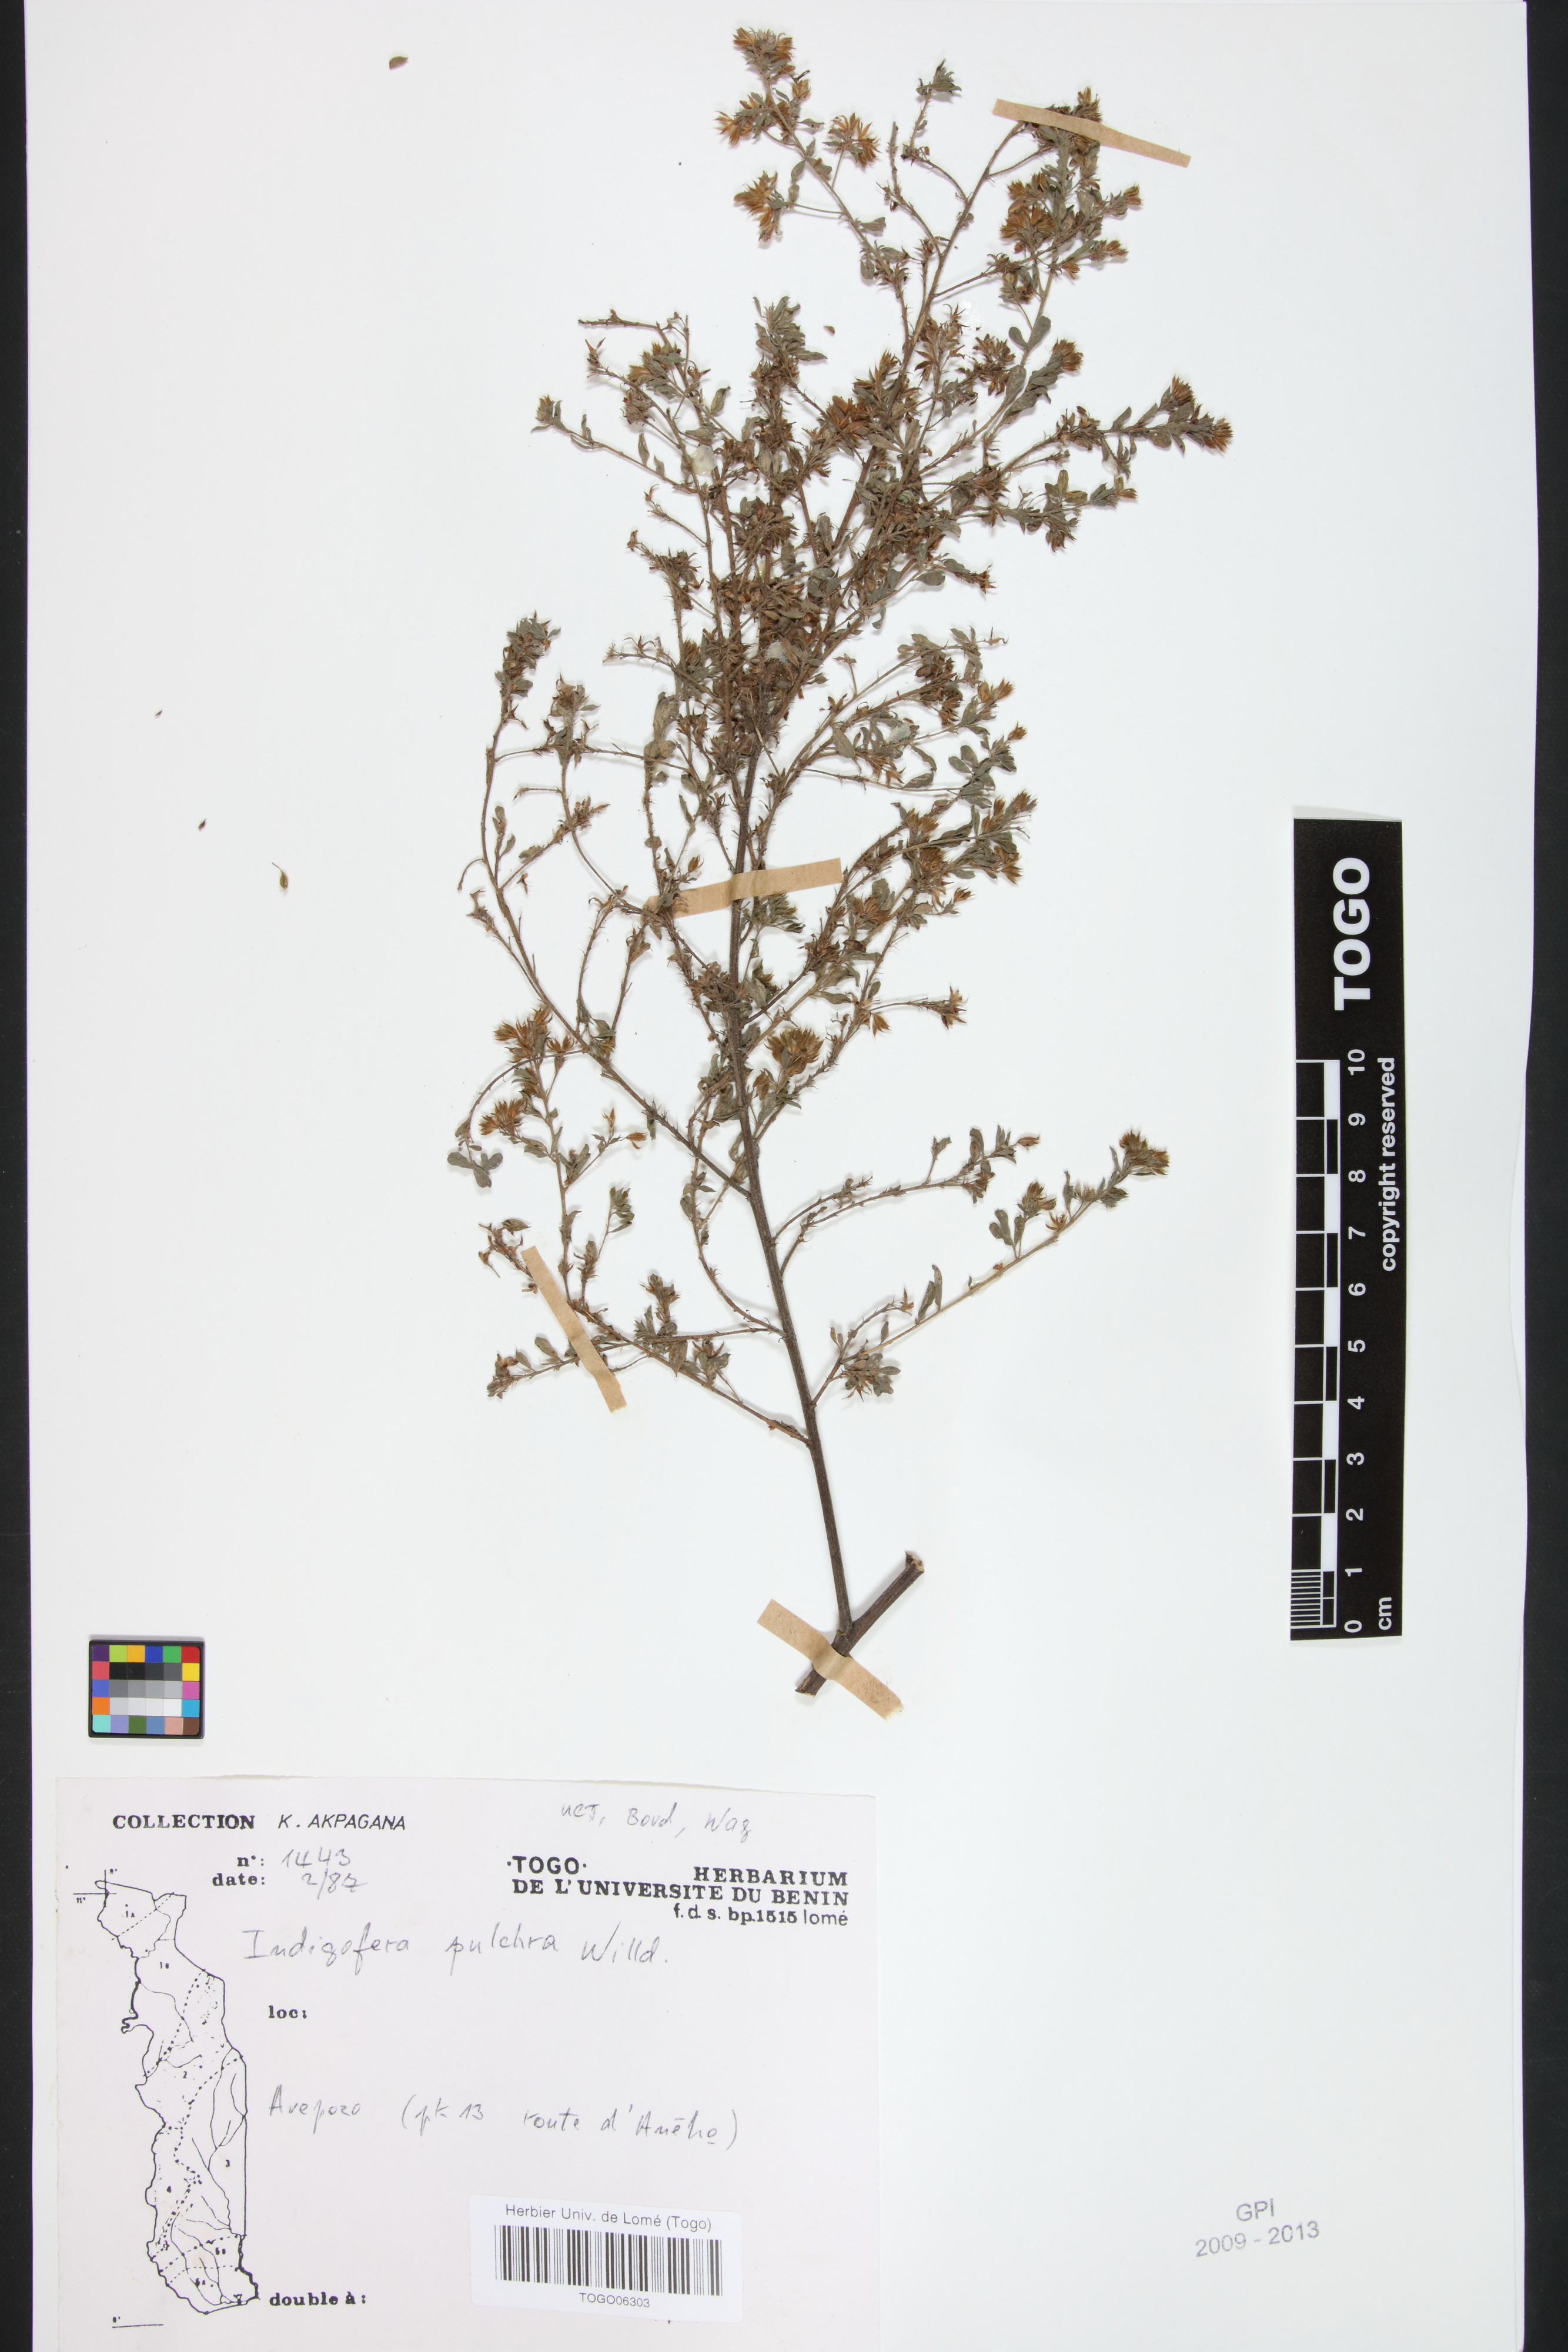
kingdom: Plantae
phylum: Tracheophyta
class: Magnoliopsida
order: Fabales
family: Fabaceae
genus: Indigofera
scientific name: Indigofera pulchra
